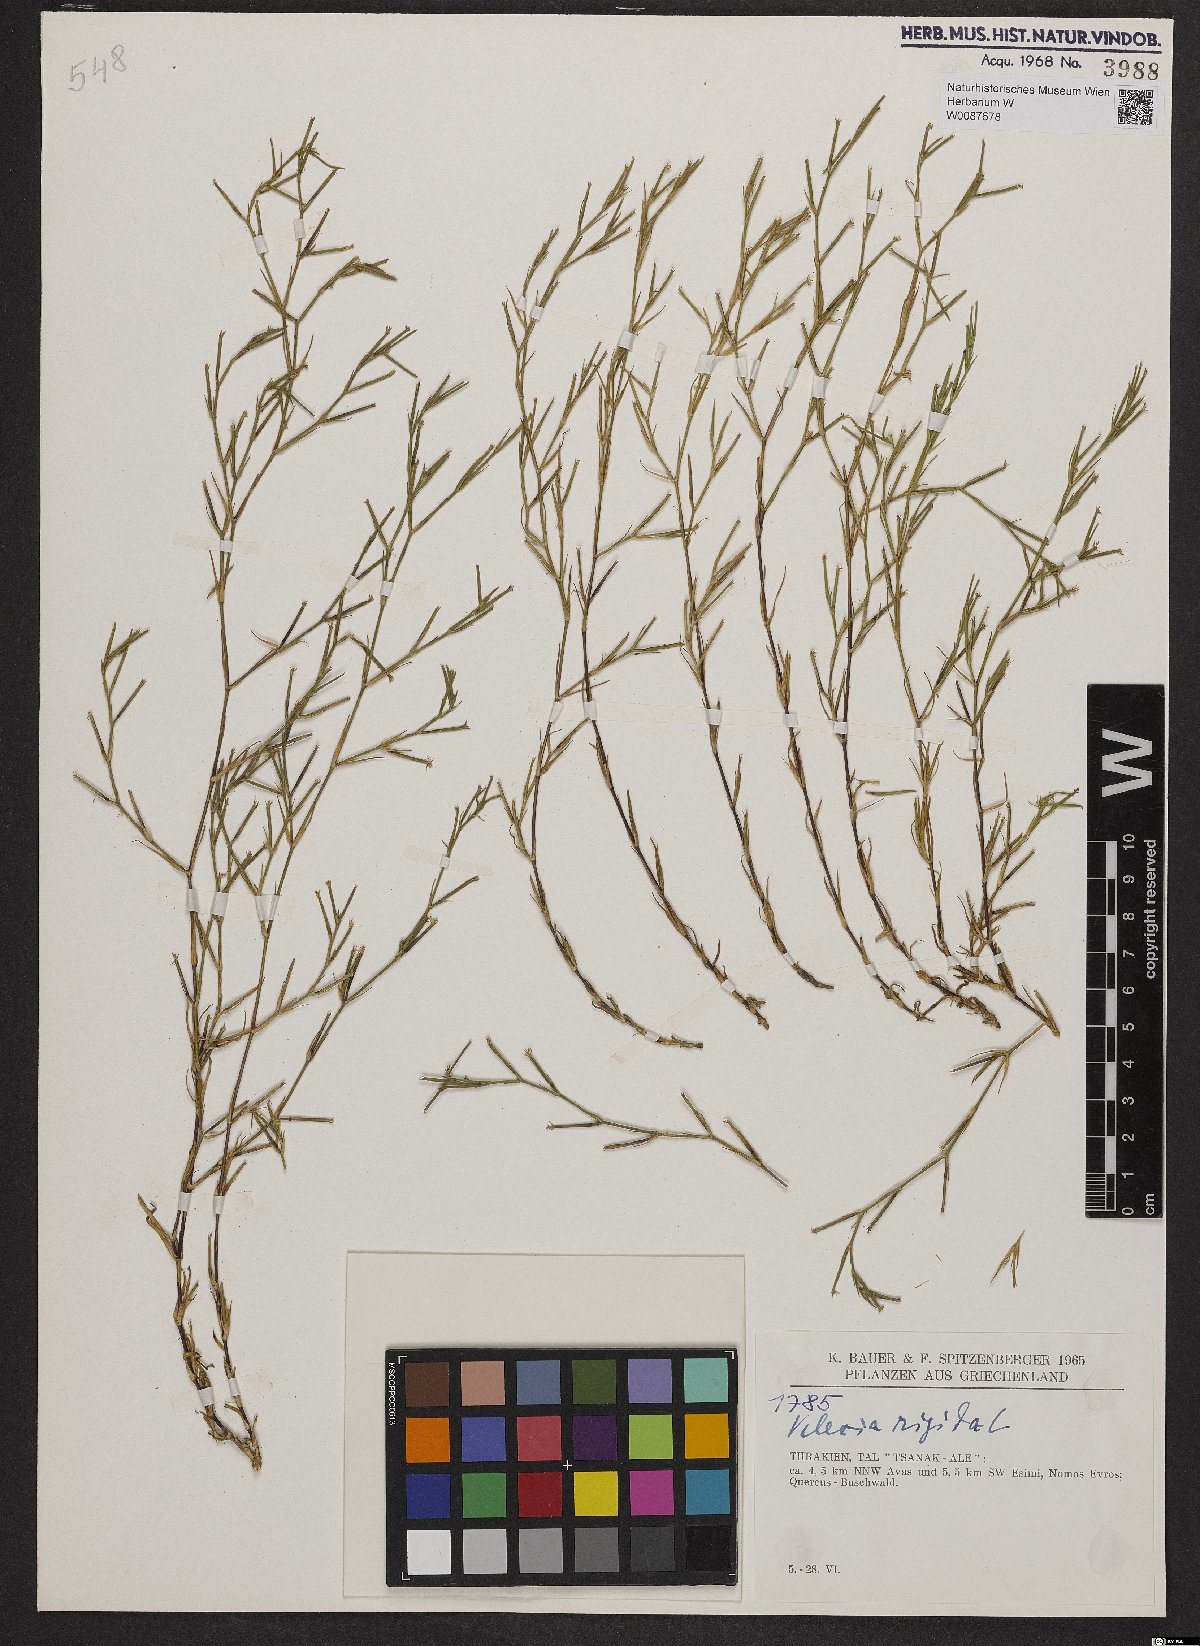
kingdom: Plantae
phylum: Tracheophyta
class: Magnoliopsida
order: Caryophyllales
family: Caryophyllaceae
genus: Dianthus
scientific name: Dianthus nudiflorus
